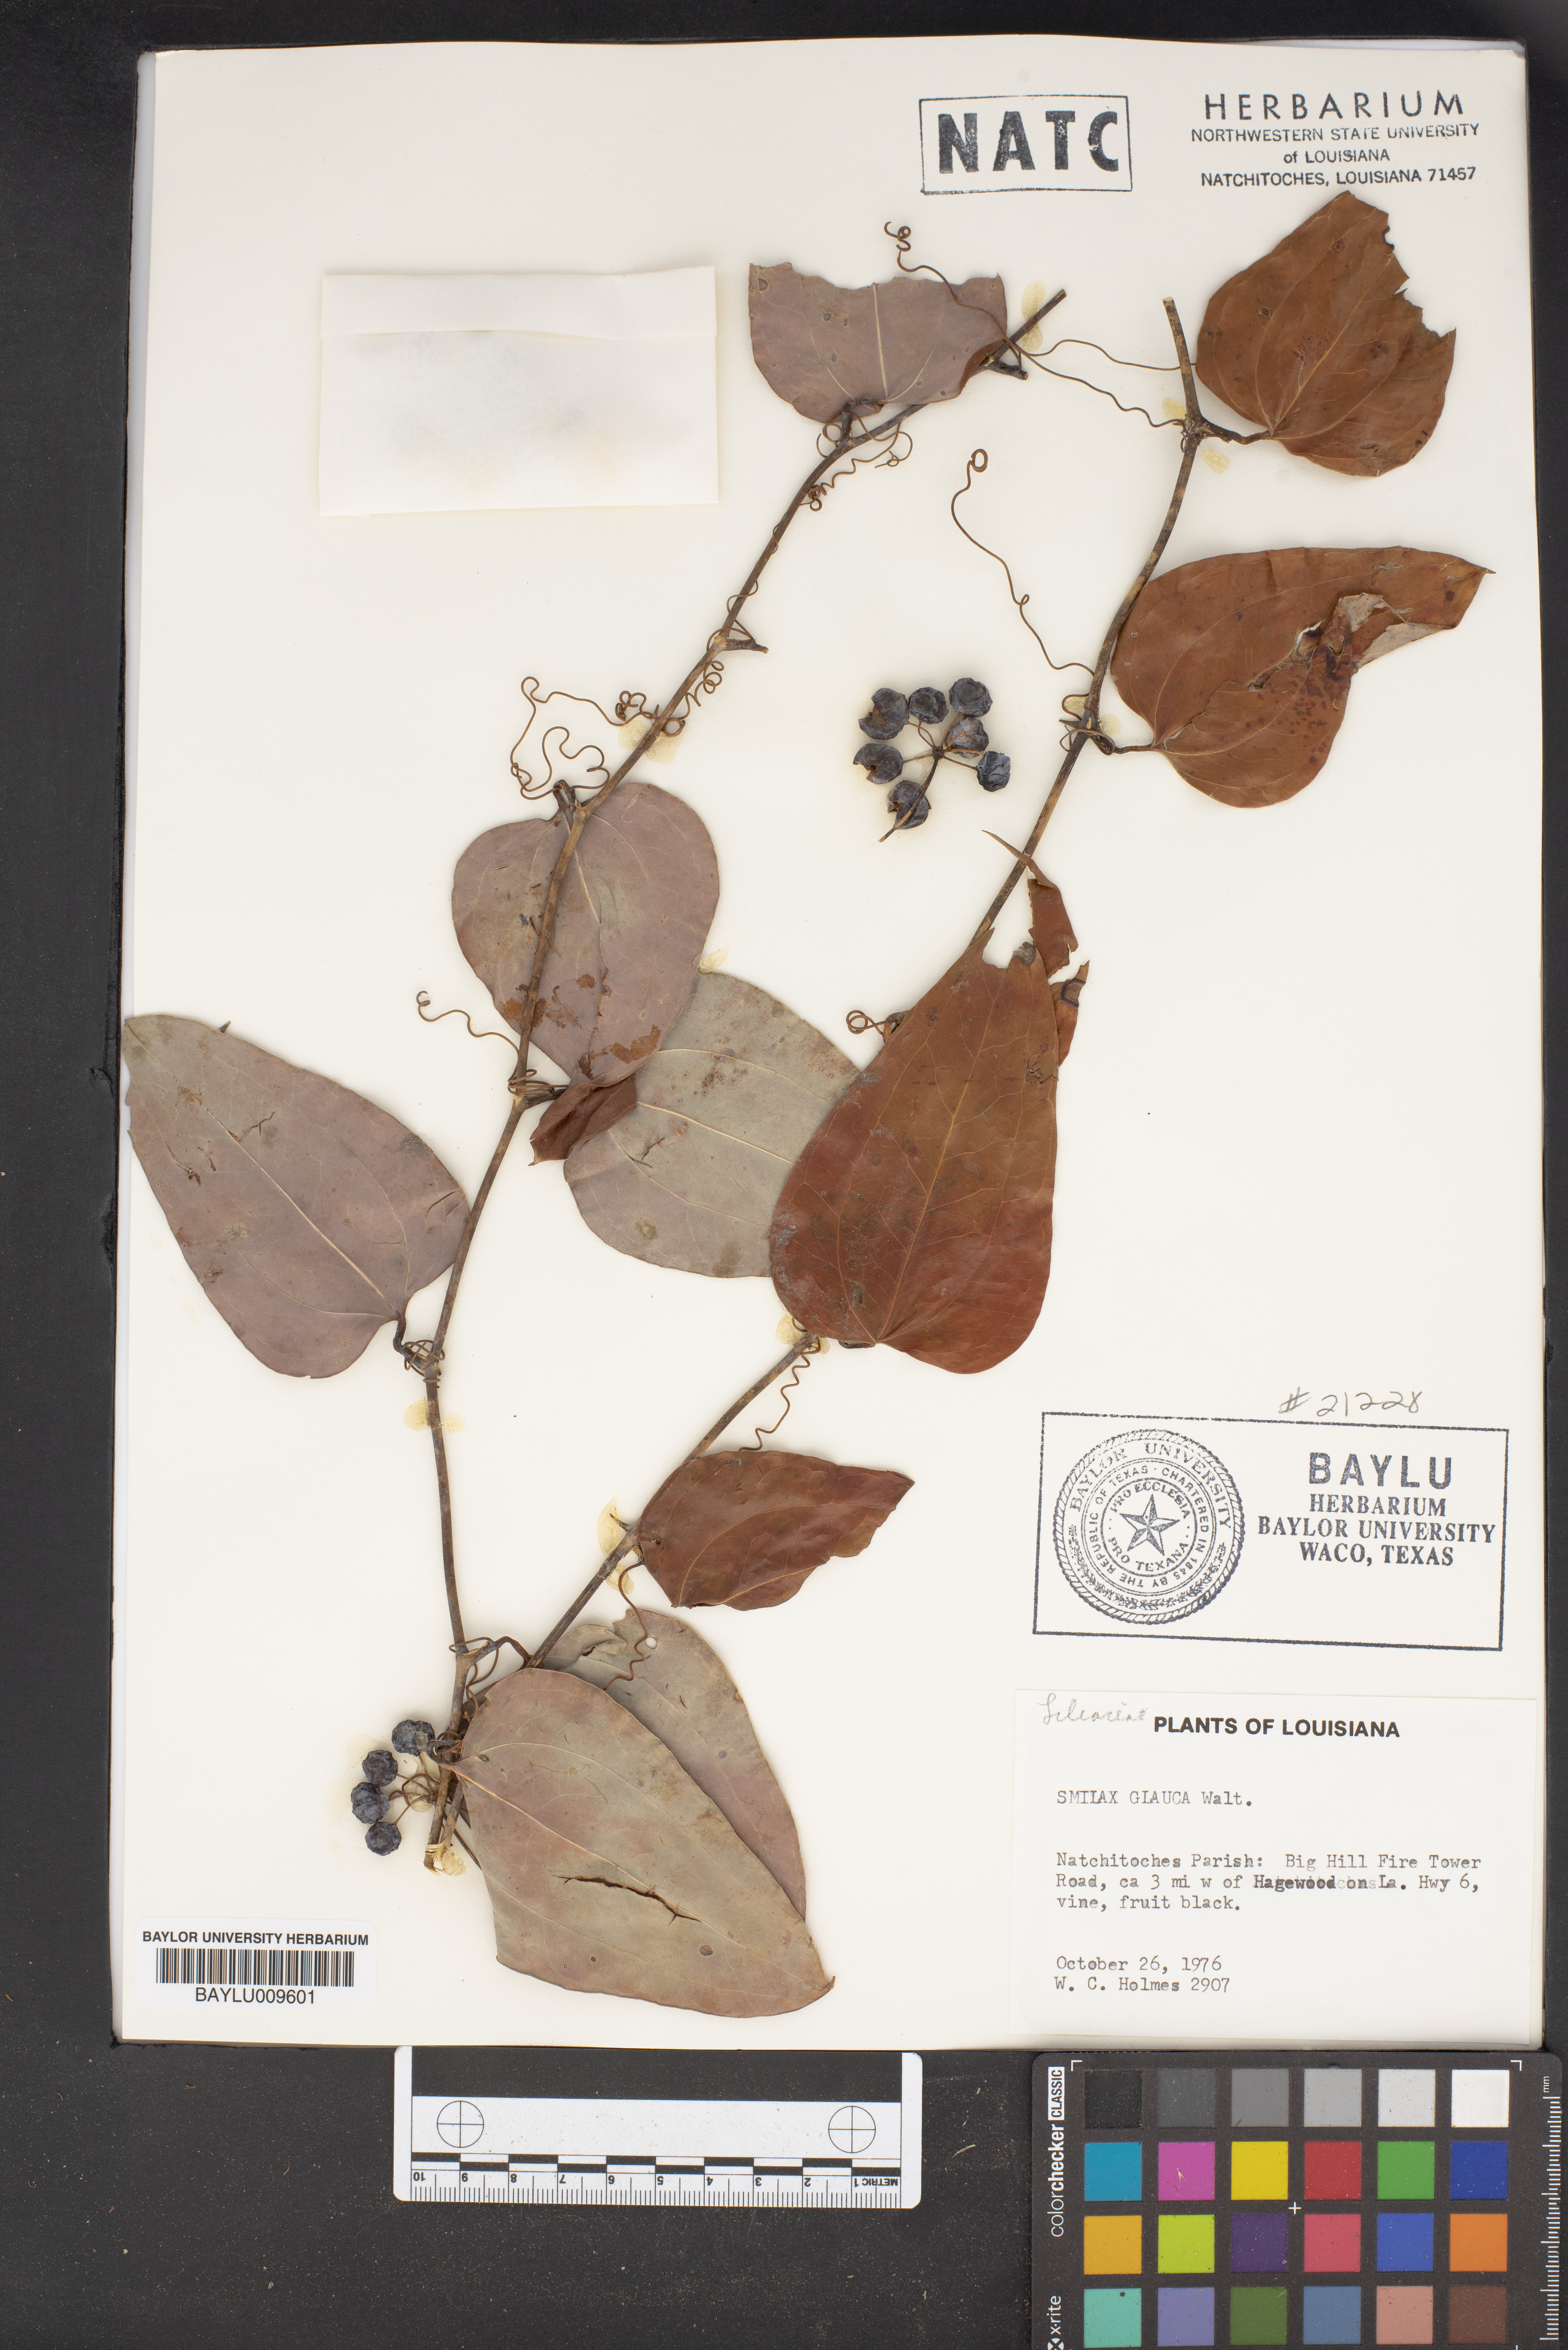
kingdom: Plantae
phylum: Tracheophyta
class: Liliopsida
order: Liliales
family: Smilacaceae
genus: Smilax
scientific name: Smilax glauca
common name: Cat greenbrier
